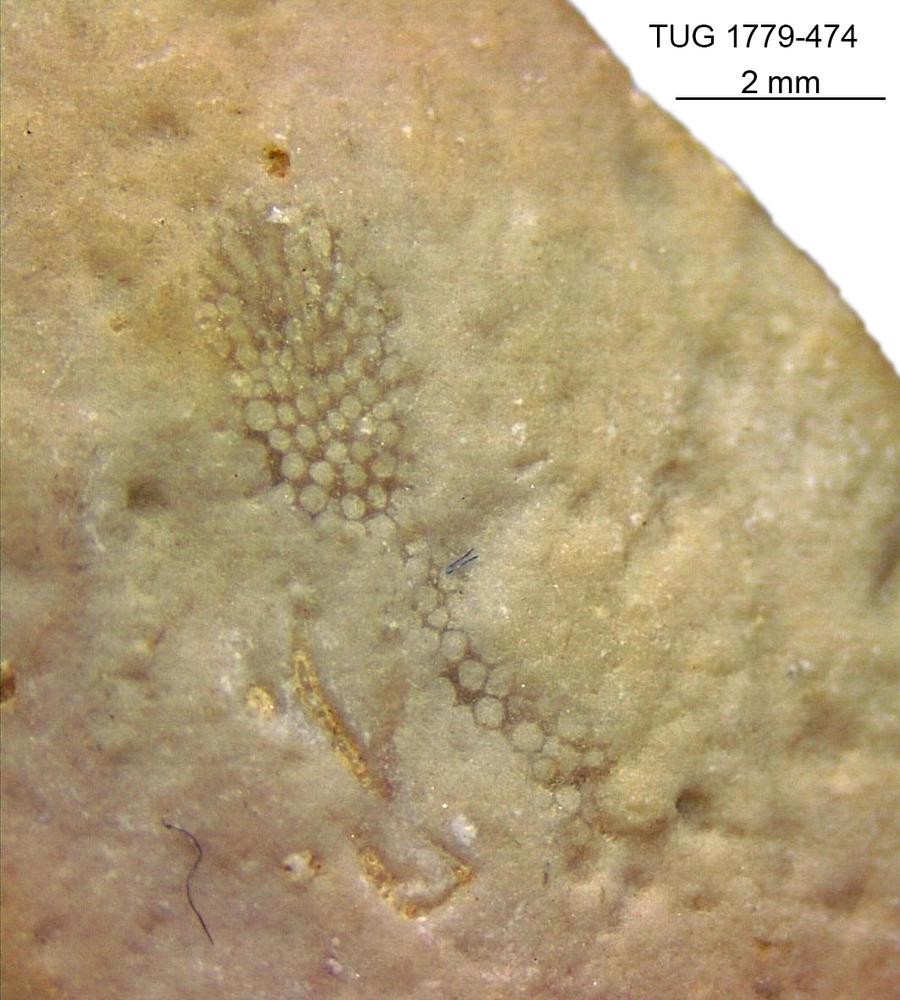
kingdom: Animalia
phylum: Bryozoa
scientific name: Bryozoa
